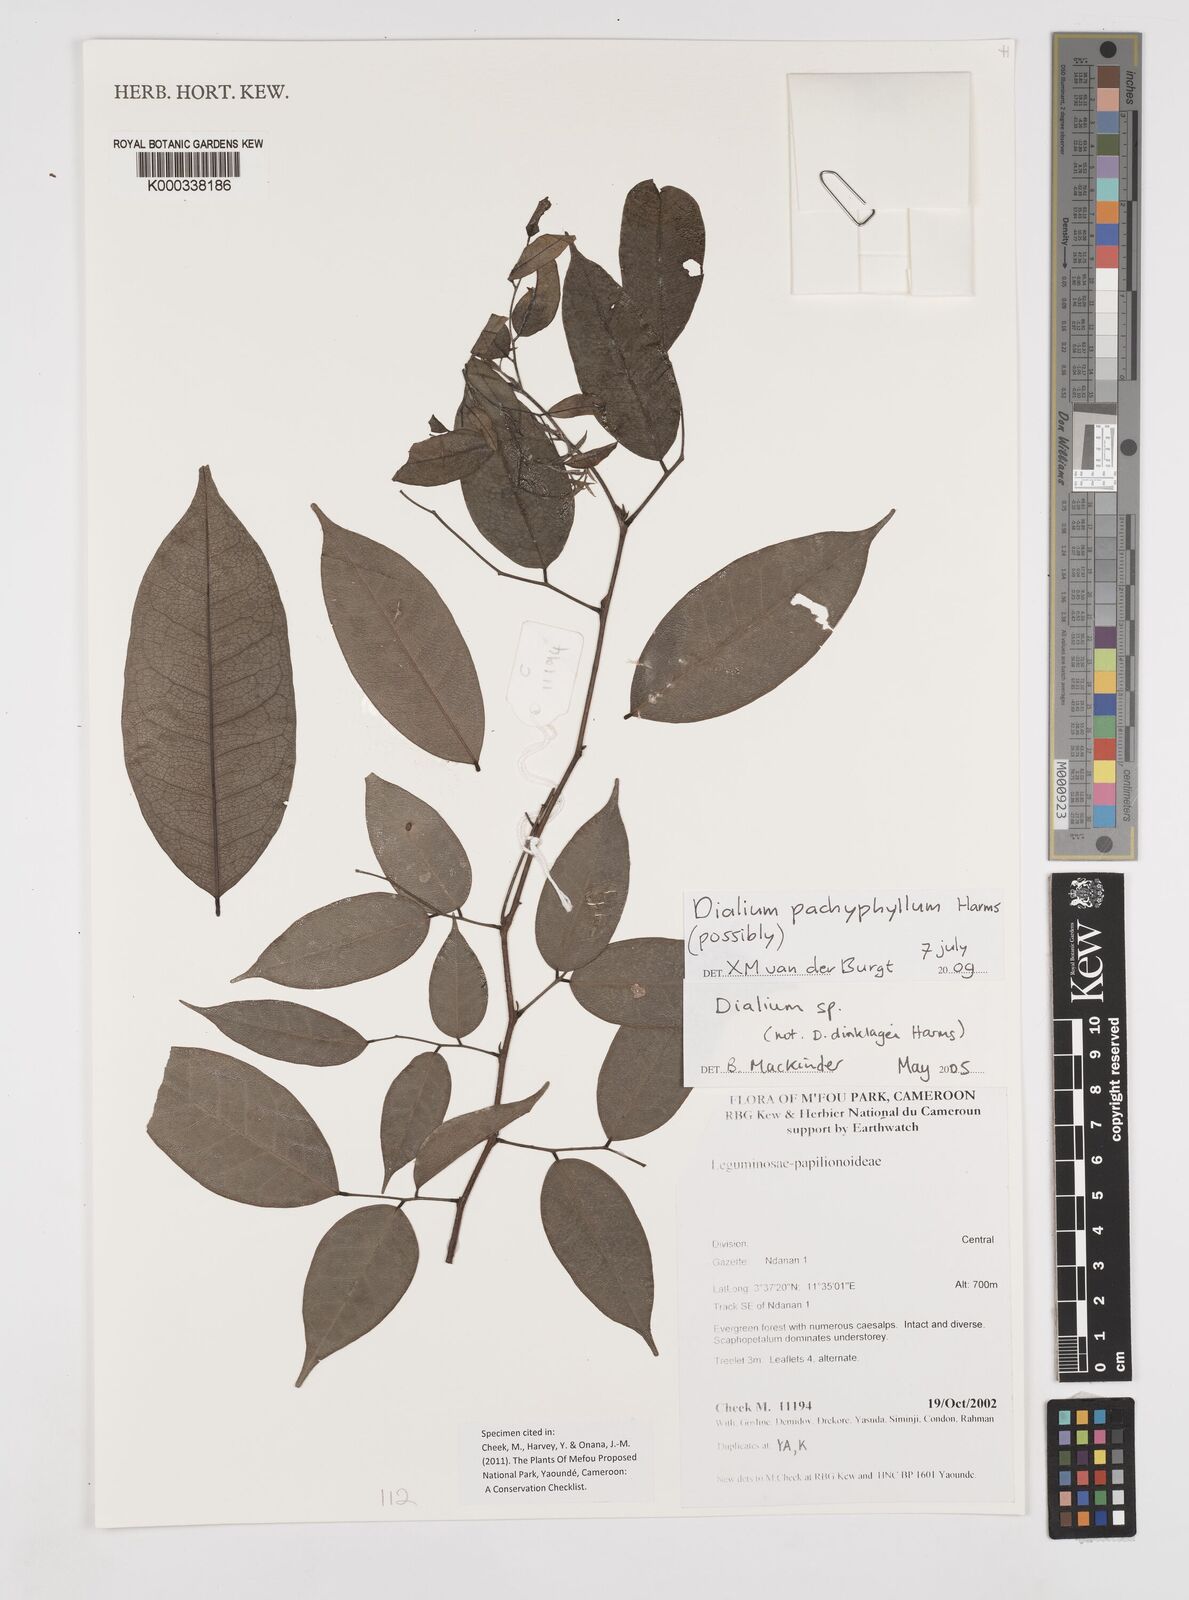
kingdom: Plantae
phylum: Tracheophyta
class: Magnoliopsida
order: Fabales
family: Fabaceae
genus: Dialium
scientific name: Dialium pachyphyllum
